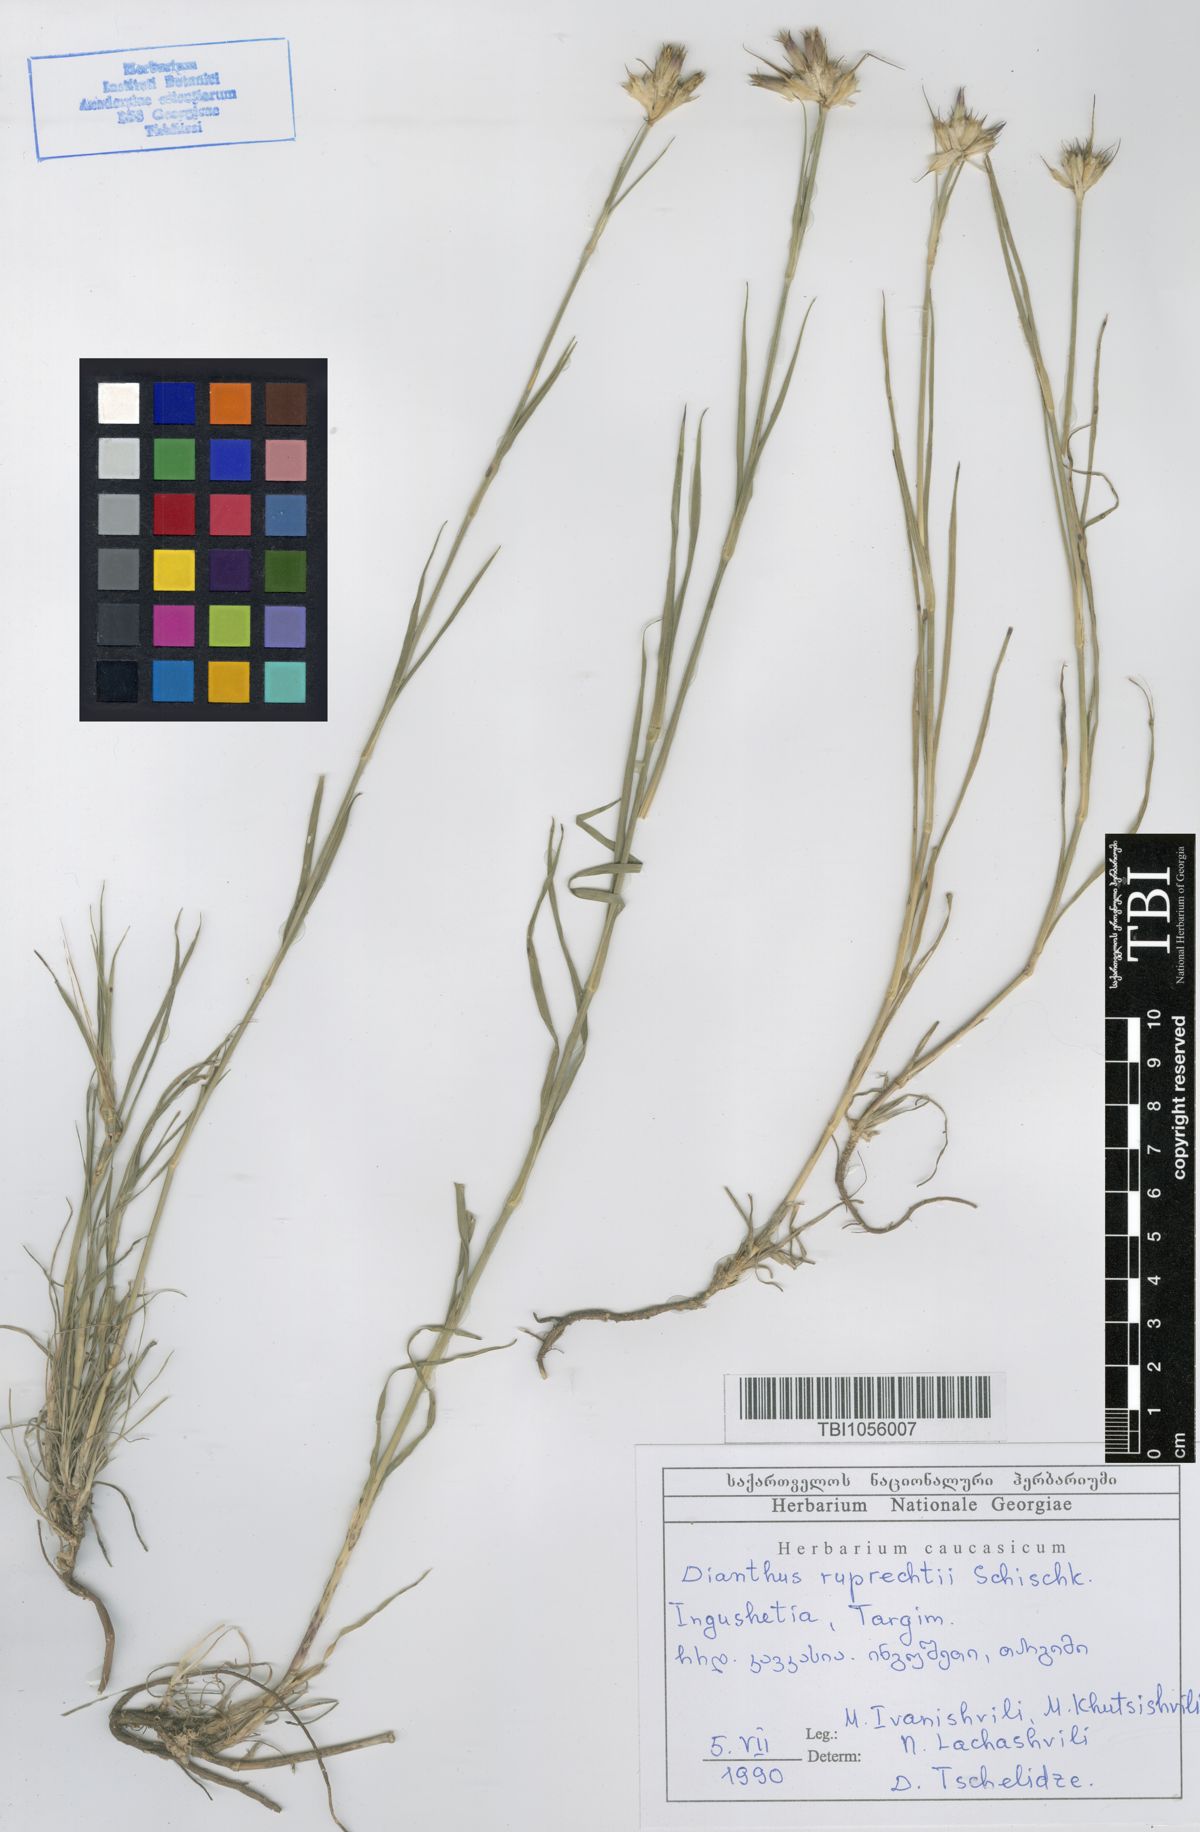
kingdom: Plantae
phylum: Tracheophyta
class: Magnoliopsida
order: Caryophyllales
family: Caryophyllaceae
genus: Dianthus
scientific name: Dianthus ruprechtii
